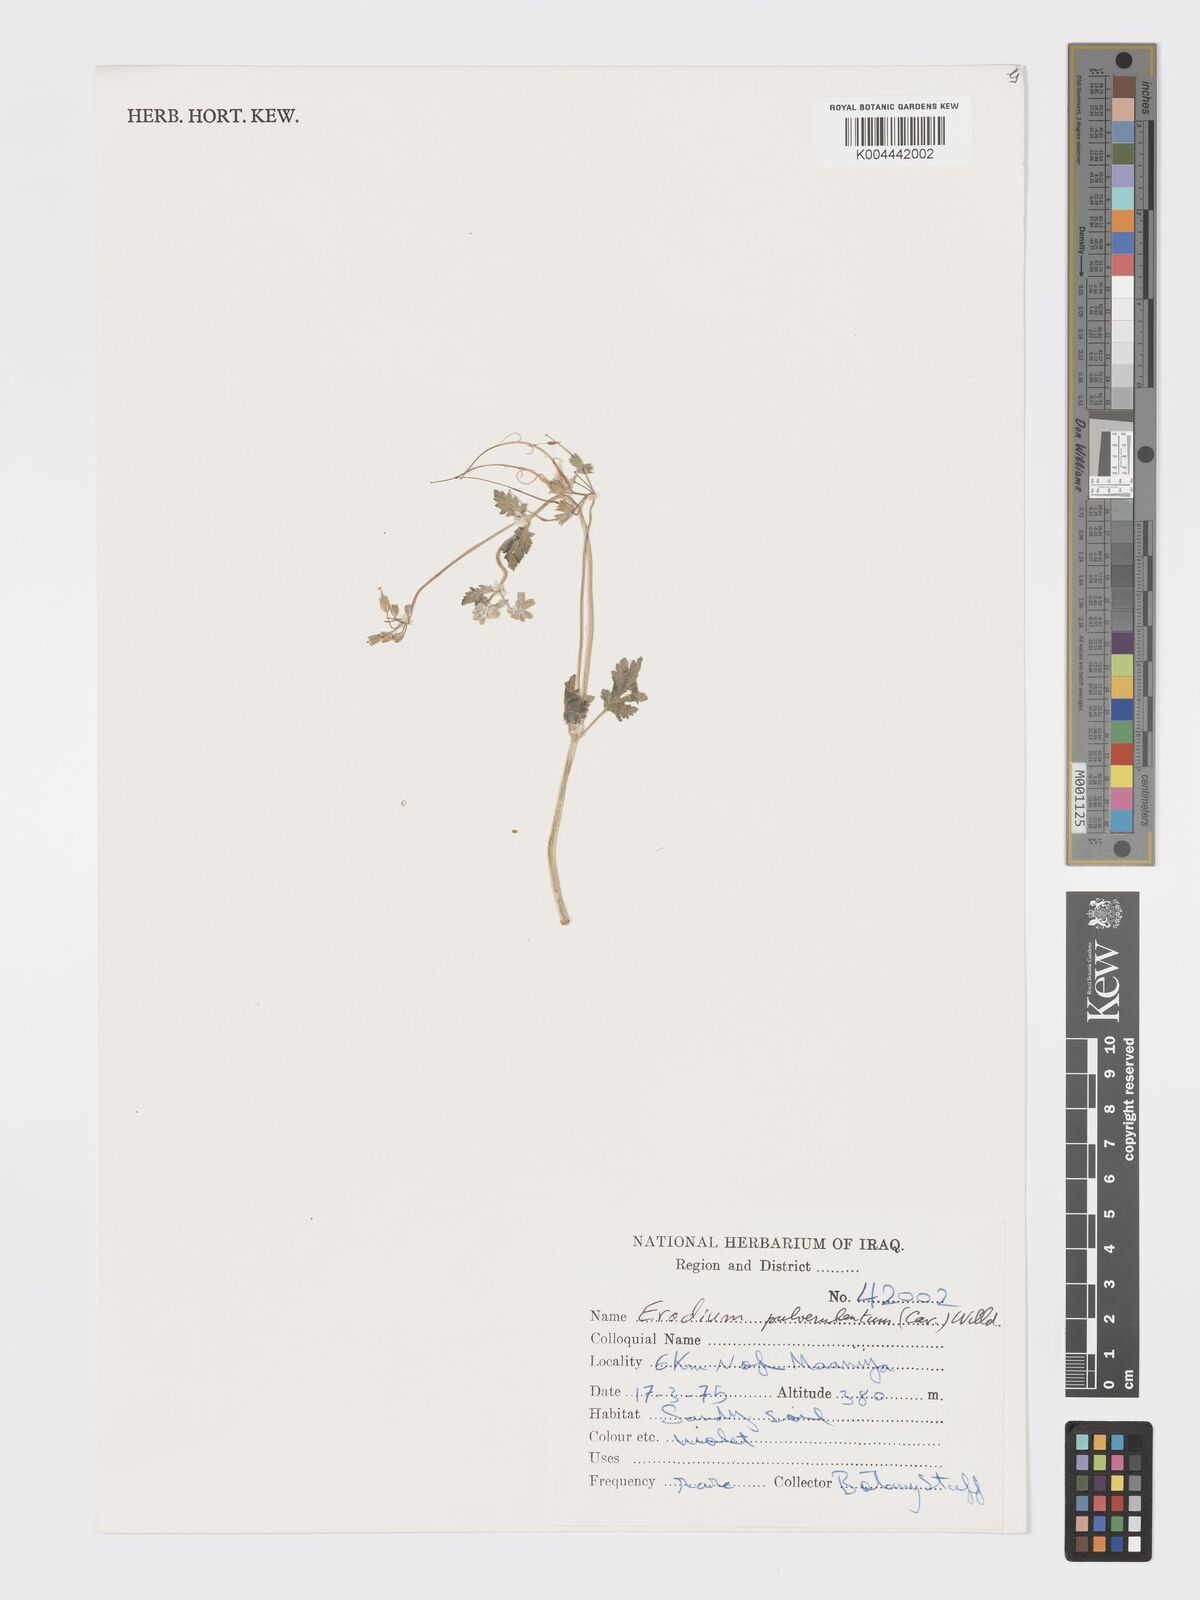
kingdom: Plantae
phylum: Tracheophyta
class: Magnoliopsida
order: Geraniales
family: Geraniaceae
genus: Erodium
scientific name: Erodium laciniatum
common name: Cutleaf stork's bill
